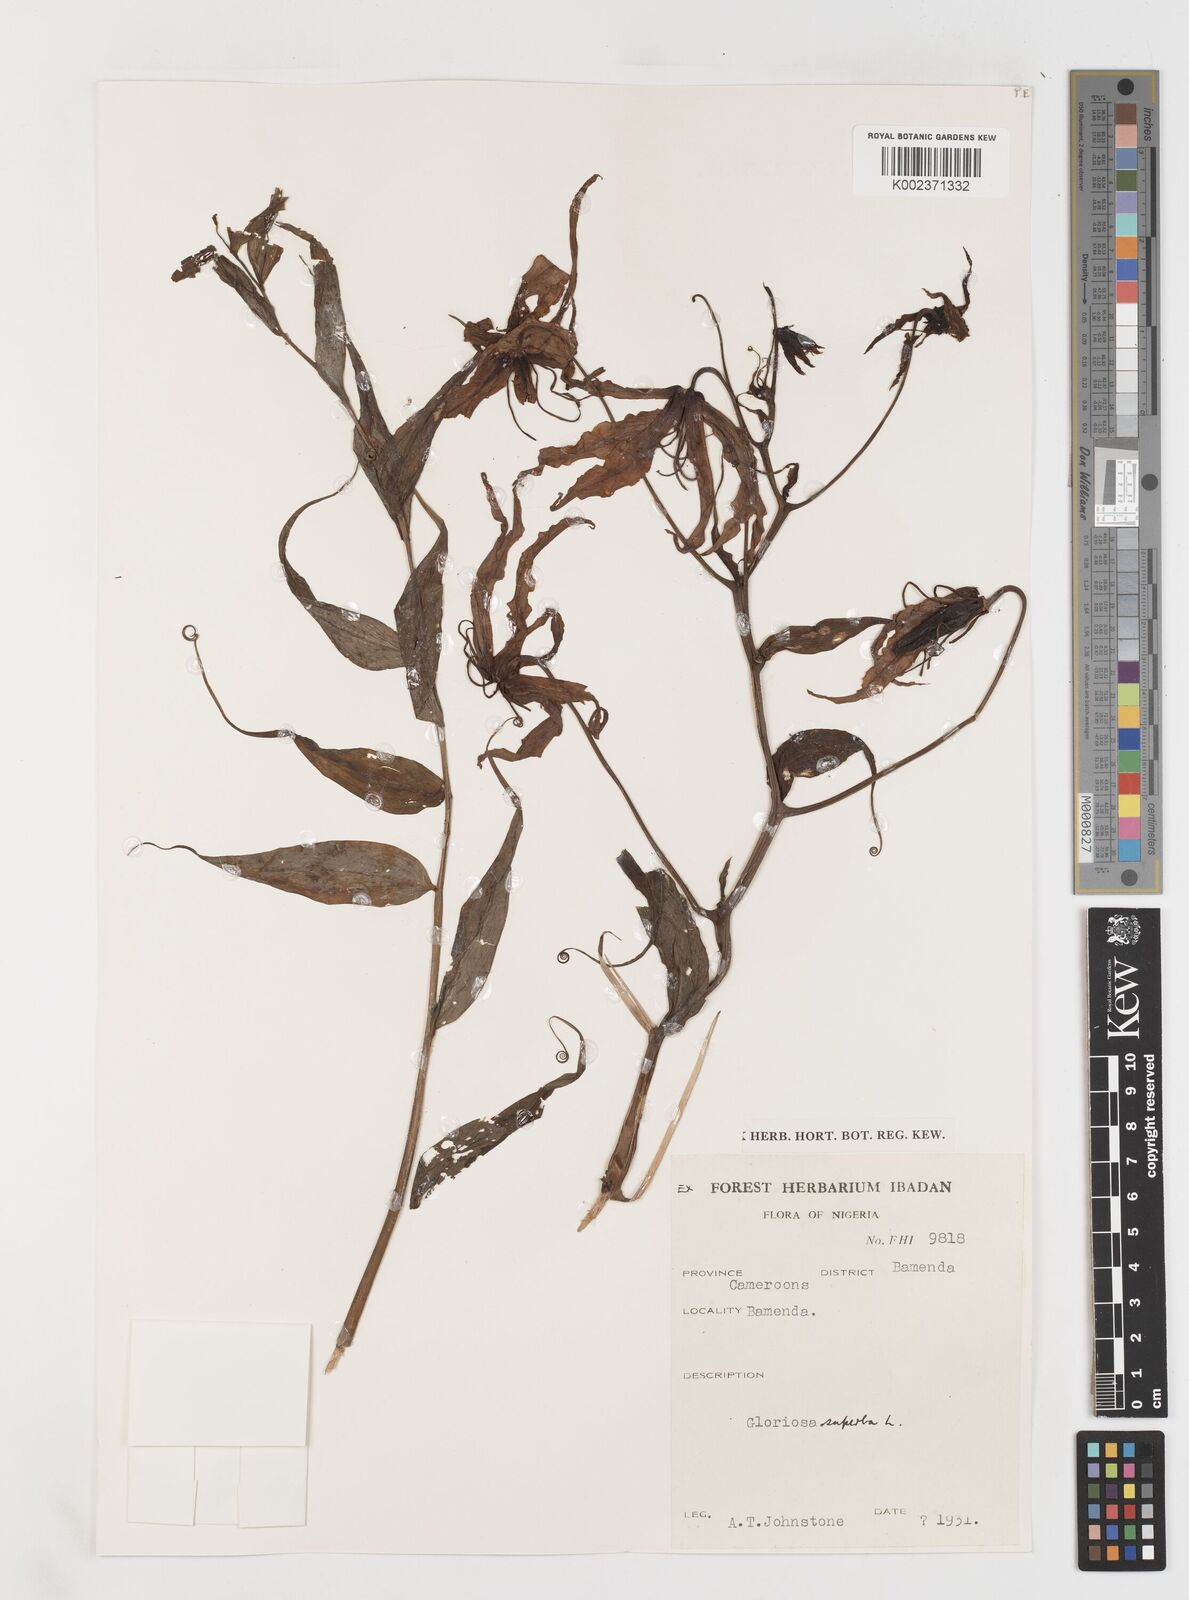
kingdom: Plantae
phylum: Tracheophyta
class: Liliopsida
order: Liliales
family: Colchicaceae
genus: Gloriosa
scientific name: Gloriosa superba
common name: Flame lily
